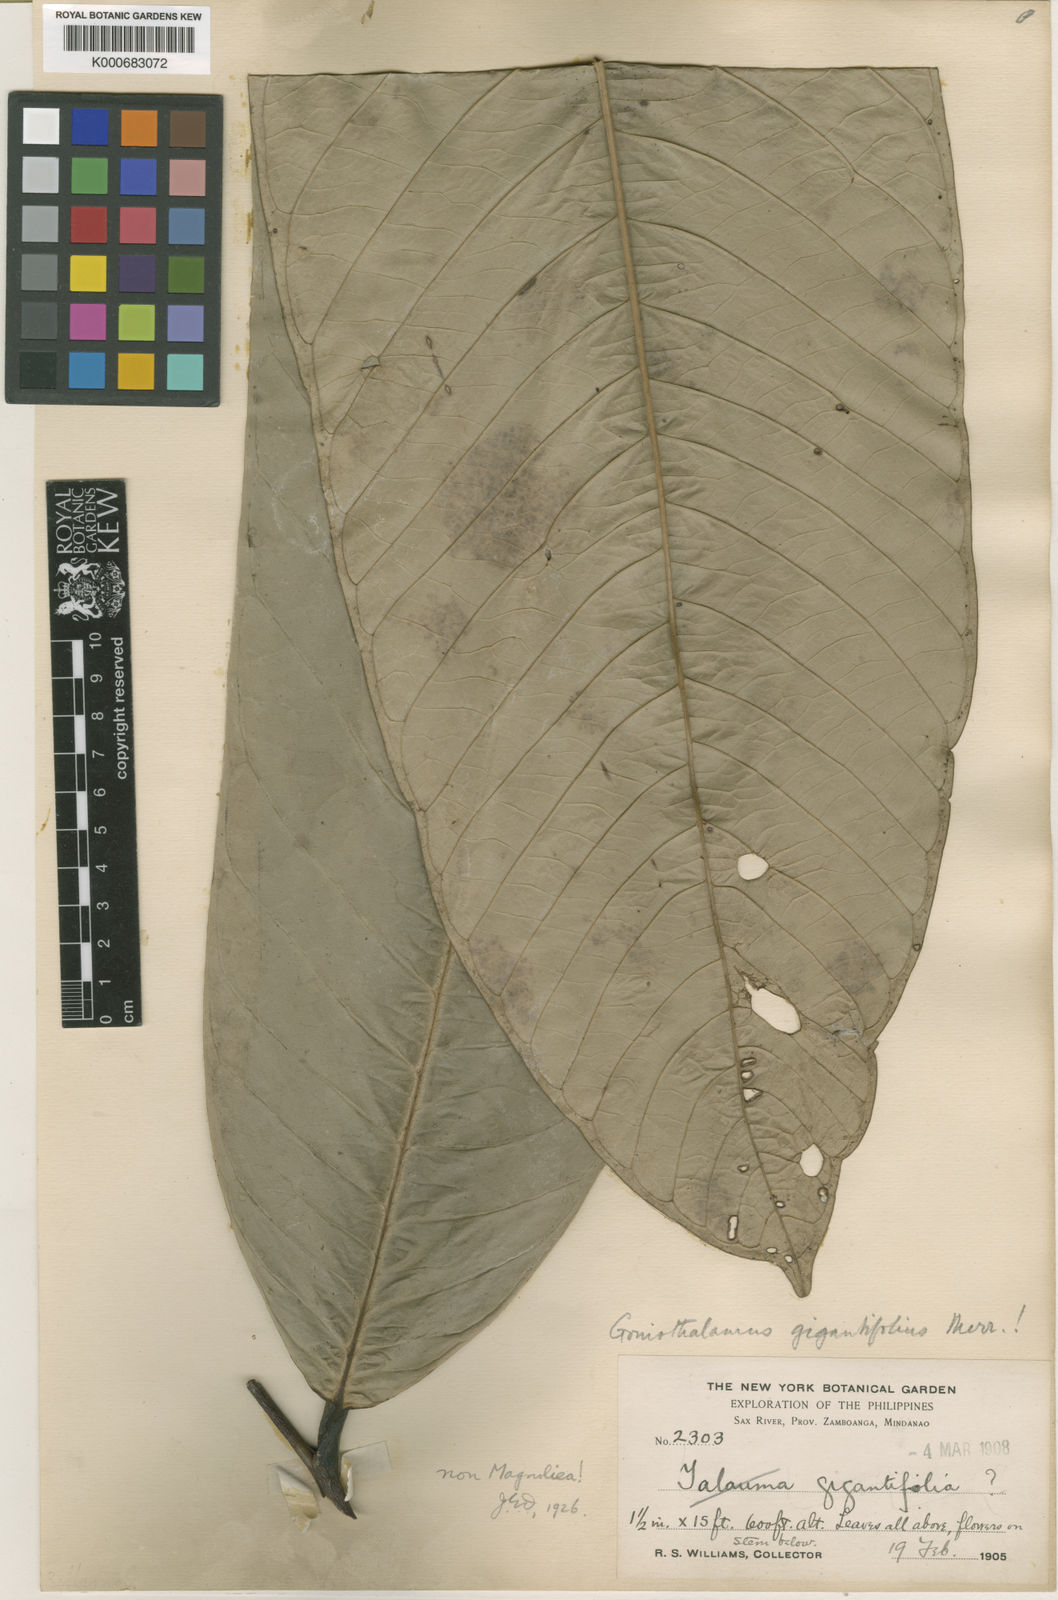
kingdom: Plantae
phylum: Tracheophyta
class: Magnoliopsida
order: Magnoliales
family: Annonaceae
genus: Goniothalamus
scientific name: Goniothalamus gigantifolius
